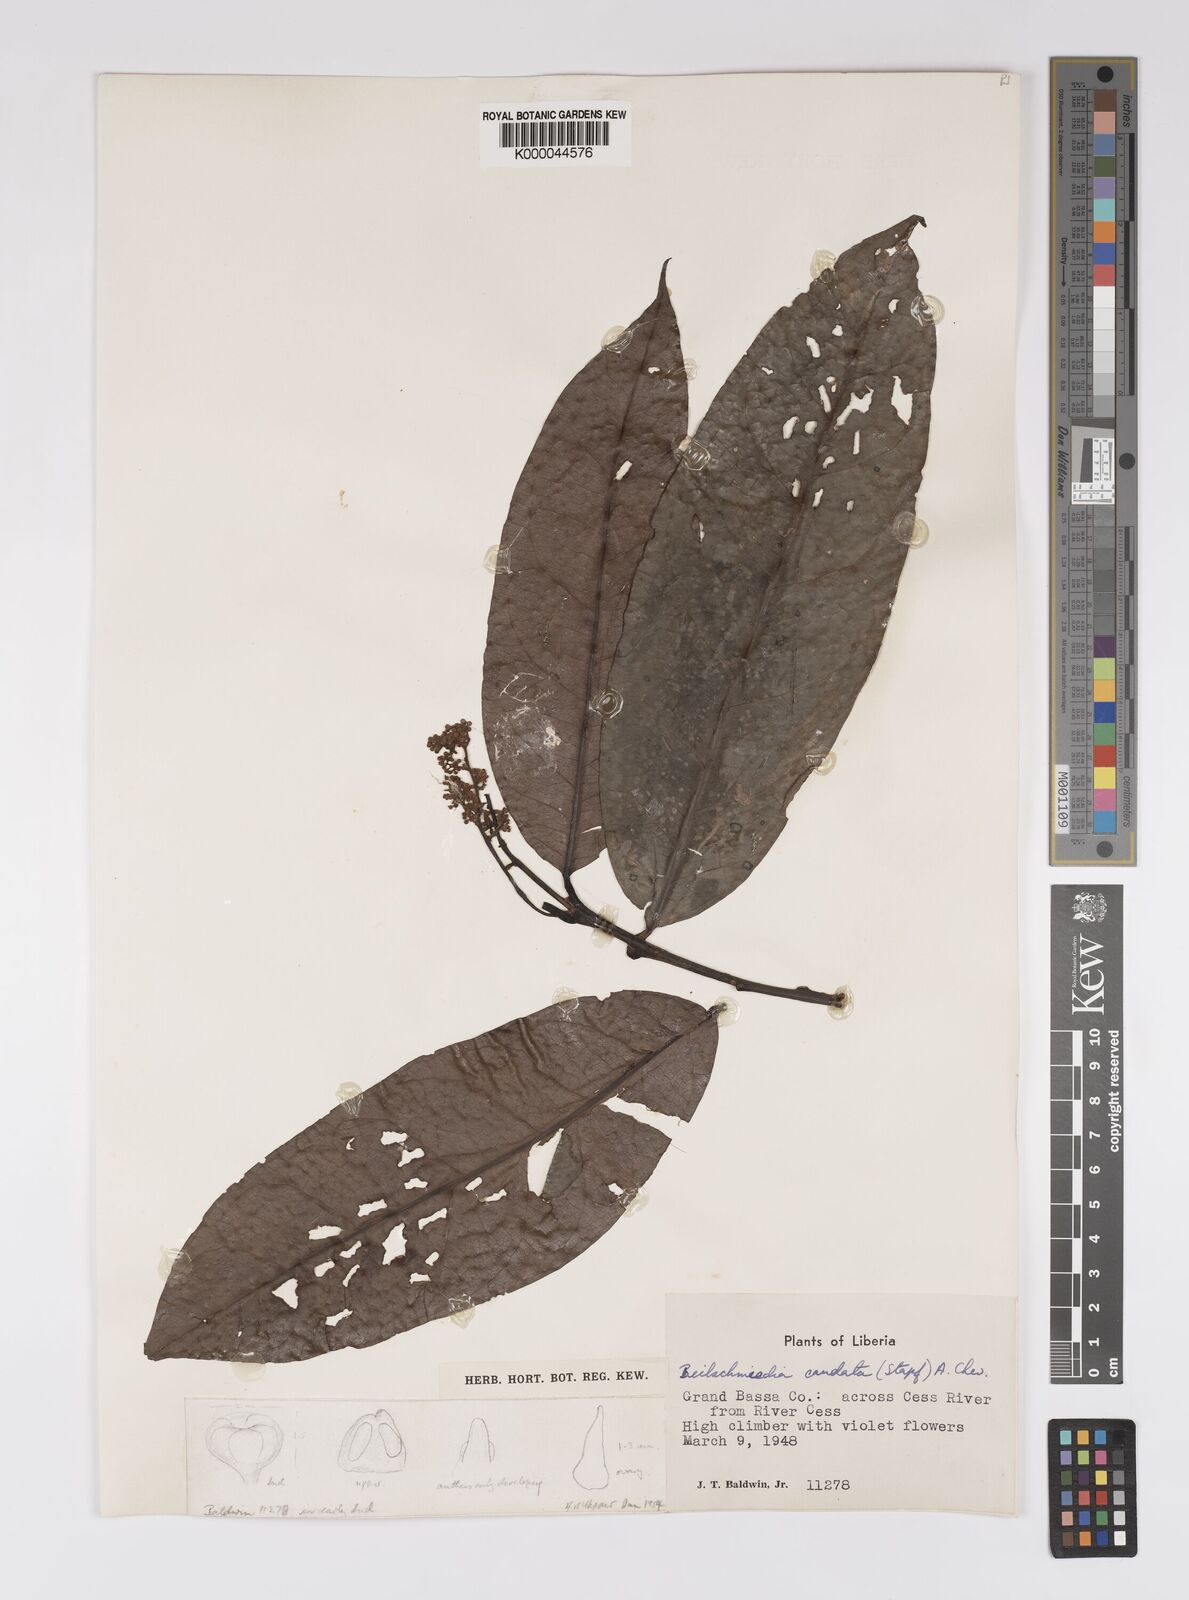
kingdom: Plantae
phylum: Tracheophyta
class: Magnoliopsida
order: Laurales
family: Lauraceae
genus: Beilschmiedia
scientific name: Beilschmiedia caudata
